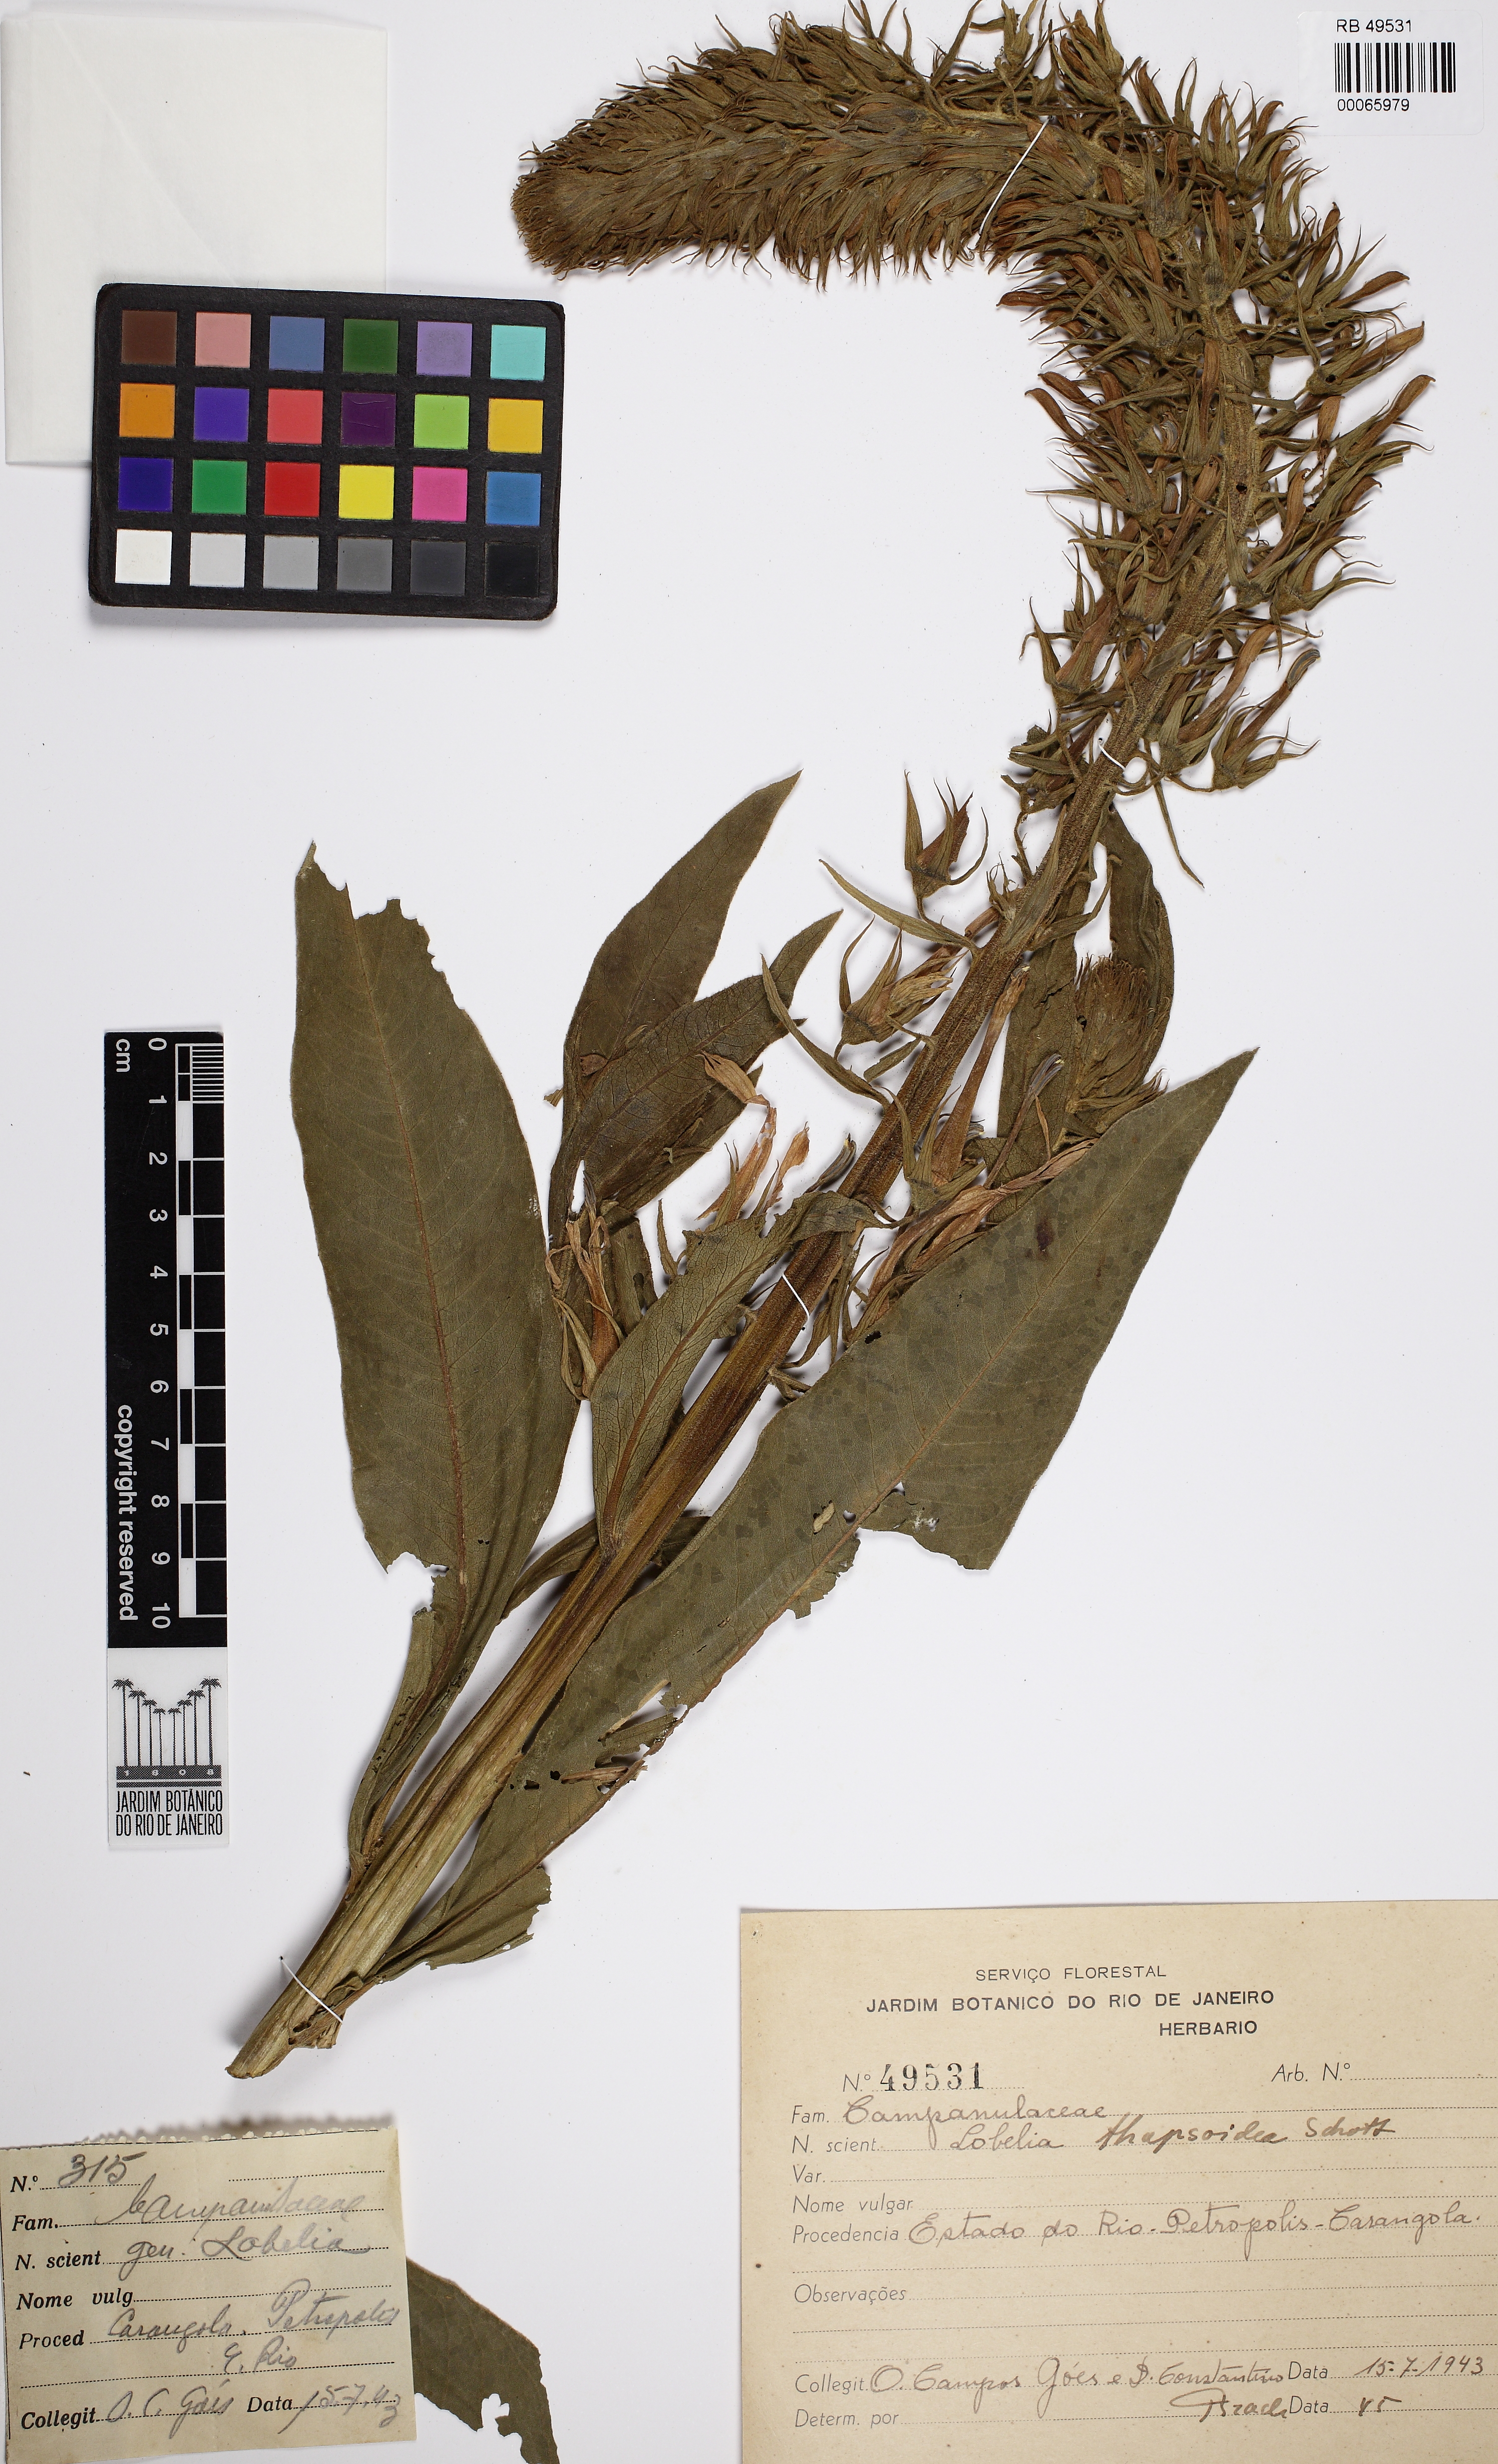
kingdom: Plantae
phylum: Tracheophyta
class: Magnoliopsida
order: Asterales
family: Campanulaceae
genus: Lobelia
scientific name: Lobelia thapsoidea
